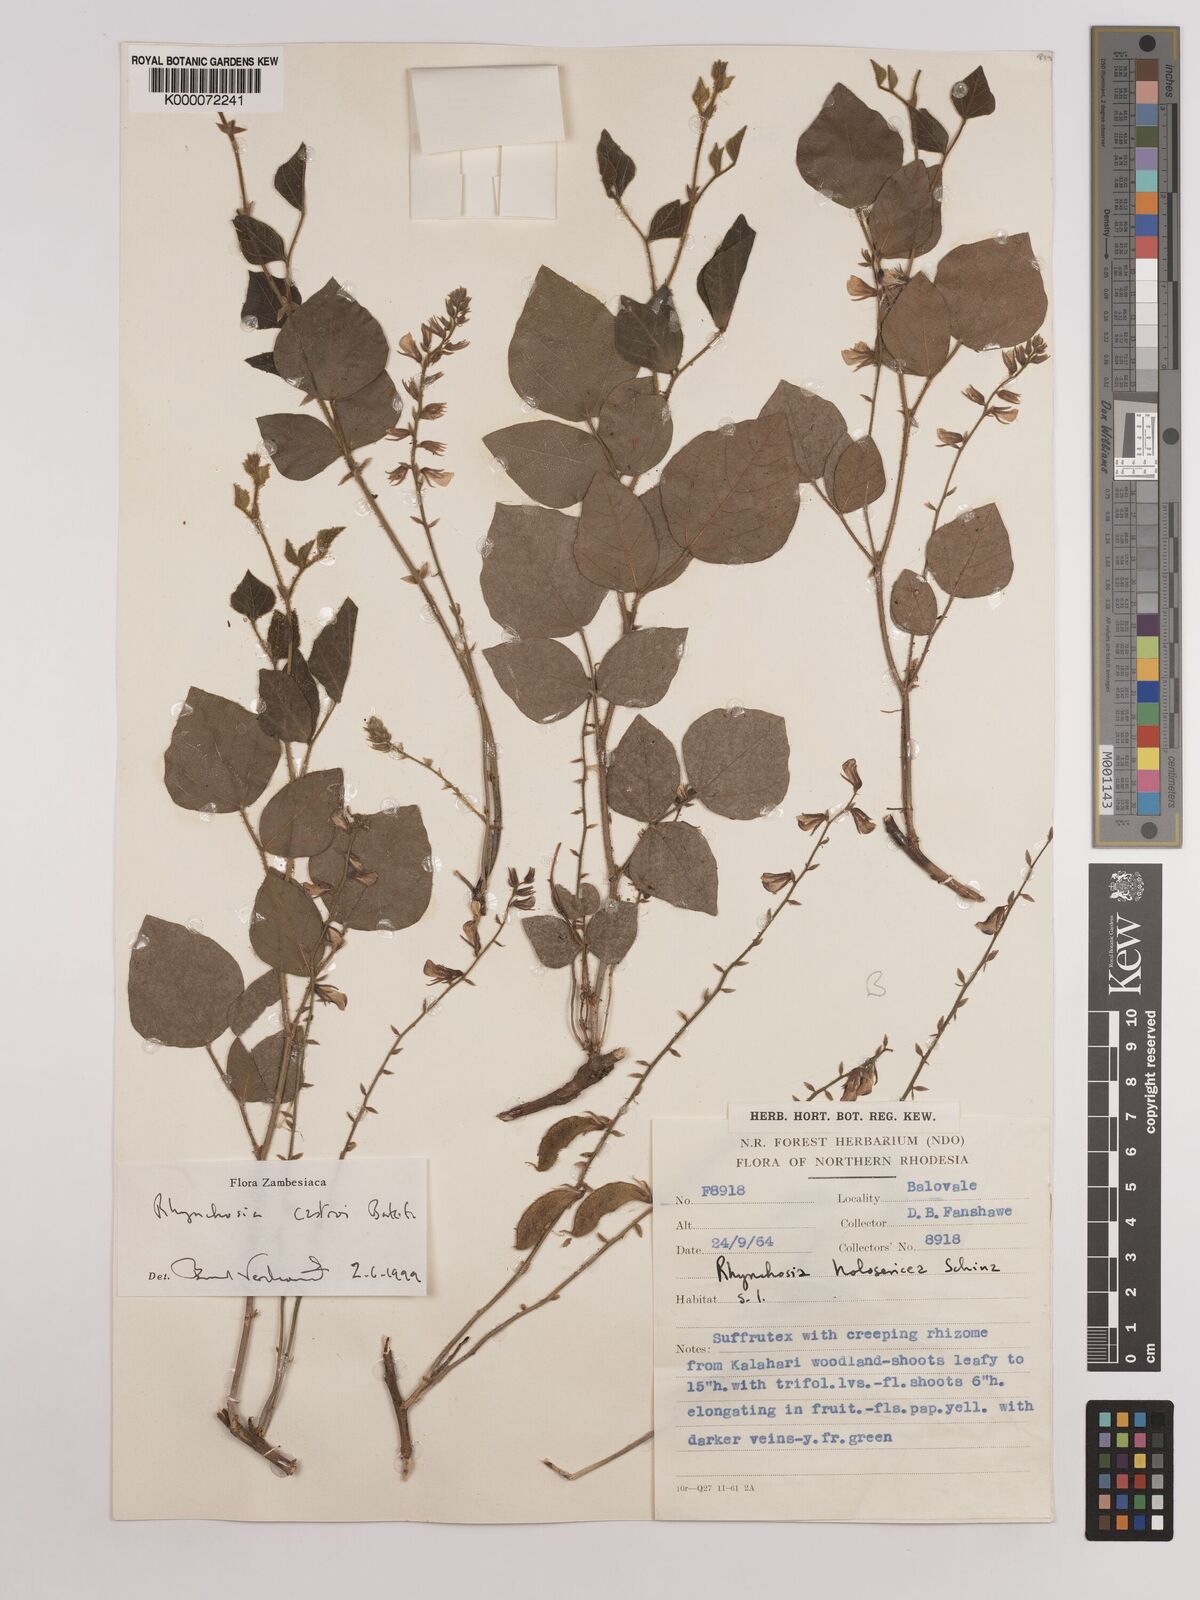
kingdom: Plantae
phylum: Tracheophyta
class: Magnoliopsida
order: Fabales
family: Fabaceae
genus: Rhynchosia
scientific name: Rhynchosia castroi
